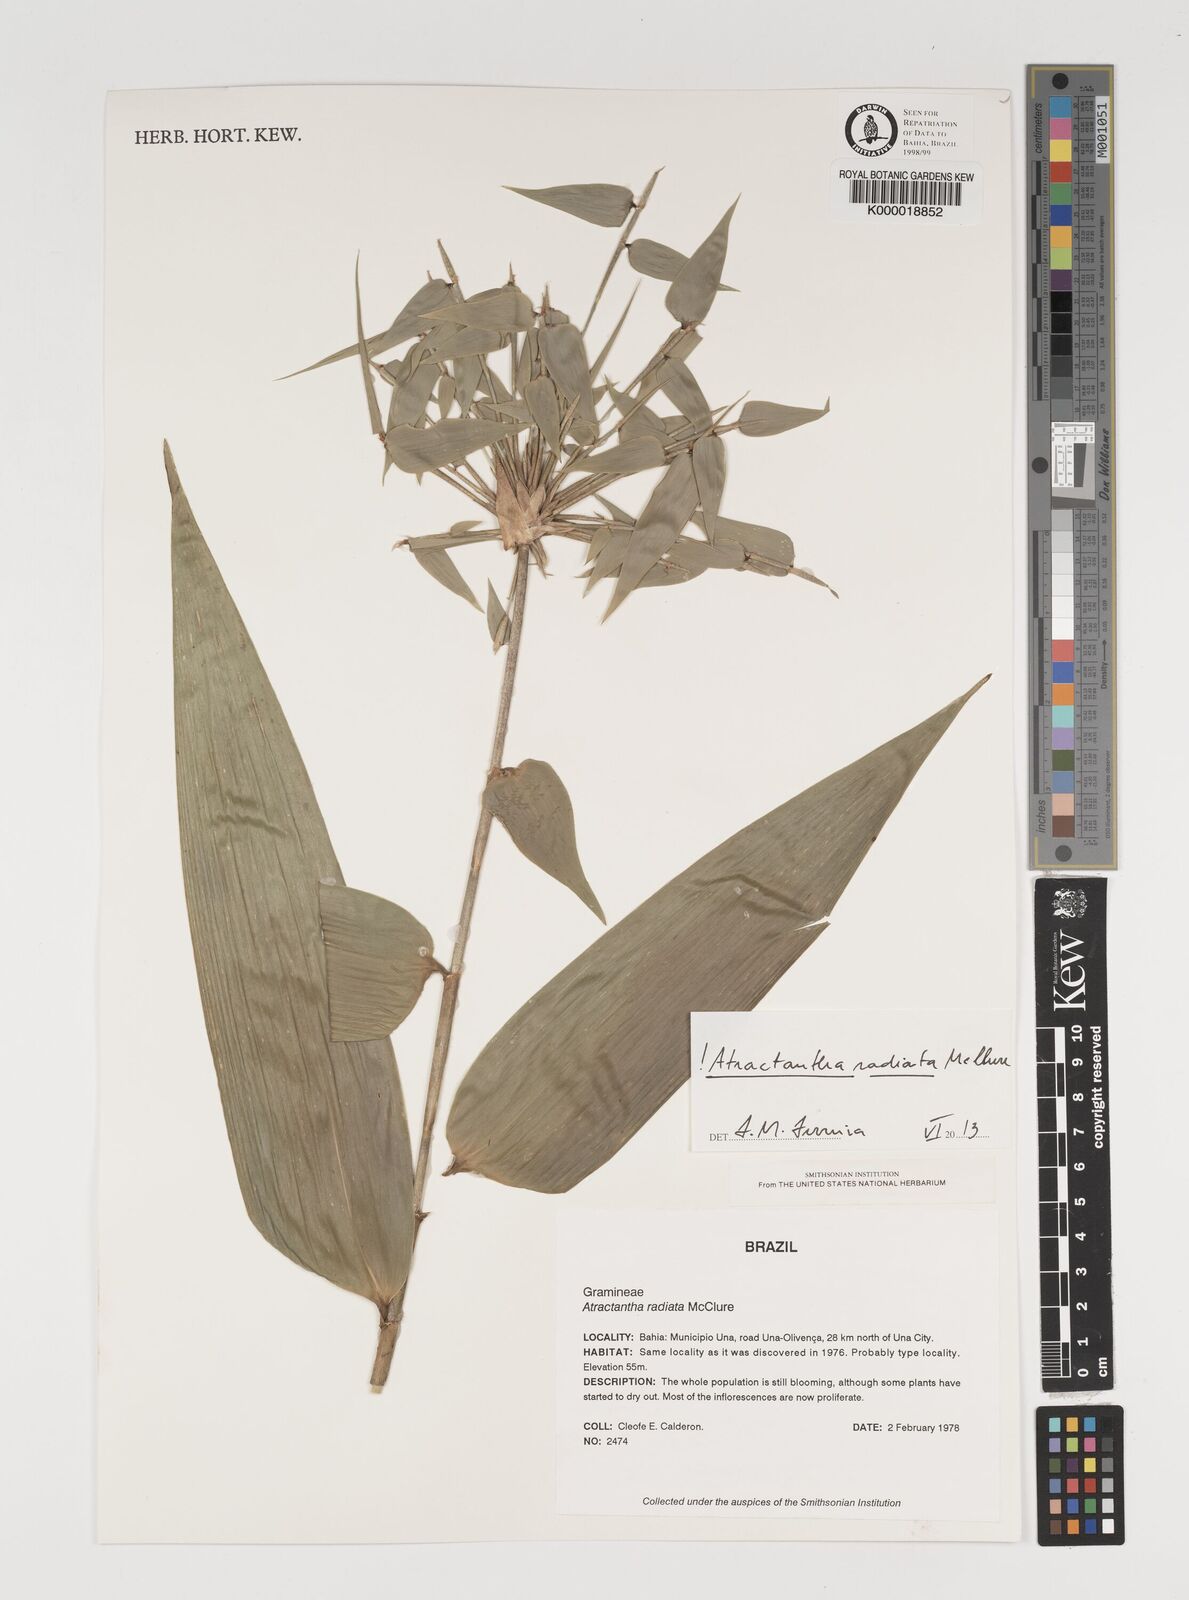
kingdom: Plantae
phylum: Tracheophyta
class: Liliopsida
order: Poales
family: Poaceae
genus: Atractantha
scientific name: Atractantha radiata
